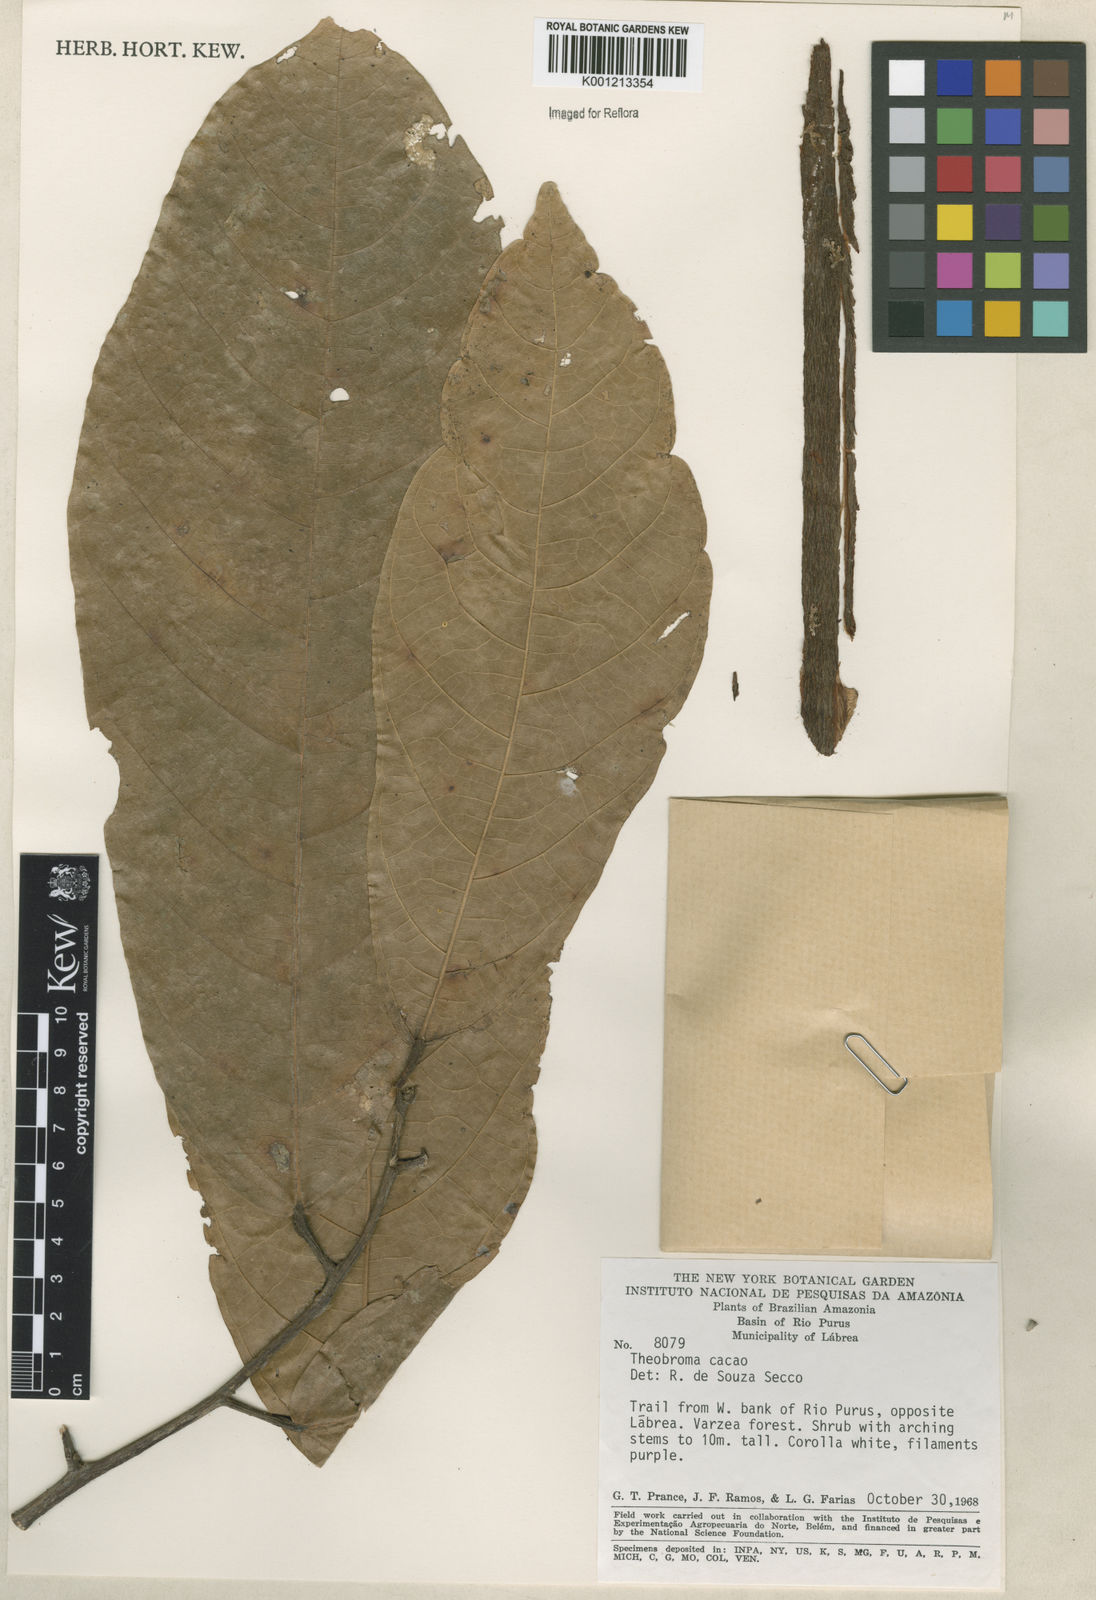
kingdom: Plantae
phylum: Tracheophyta
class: Magnoliopsida
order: Malvales
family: Malvaceae
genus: Theobroma
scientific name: Theobroma cacao
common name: Cocoa
